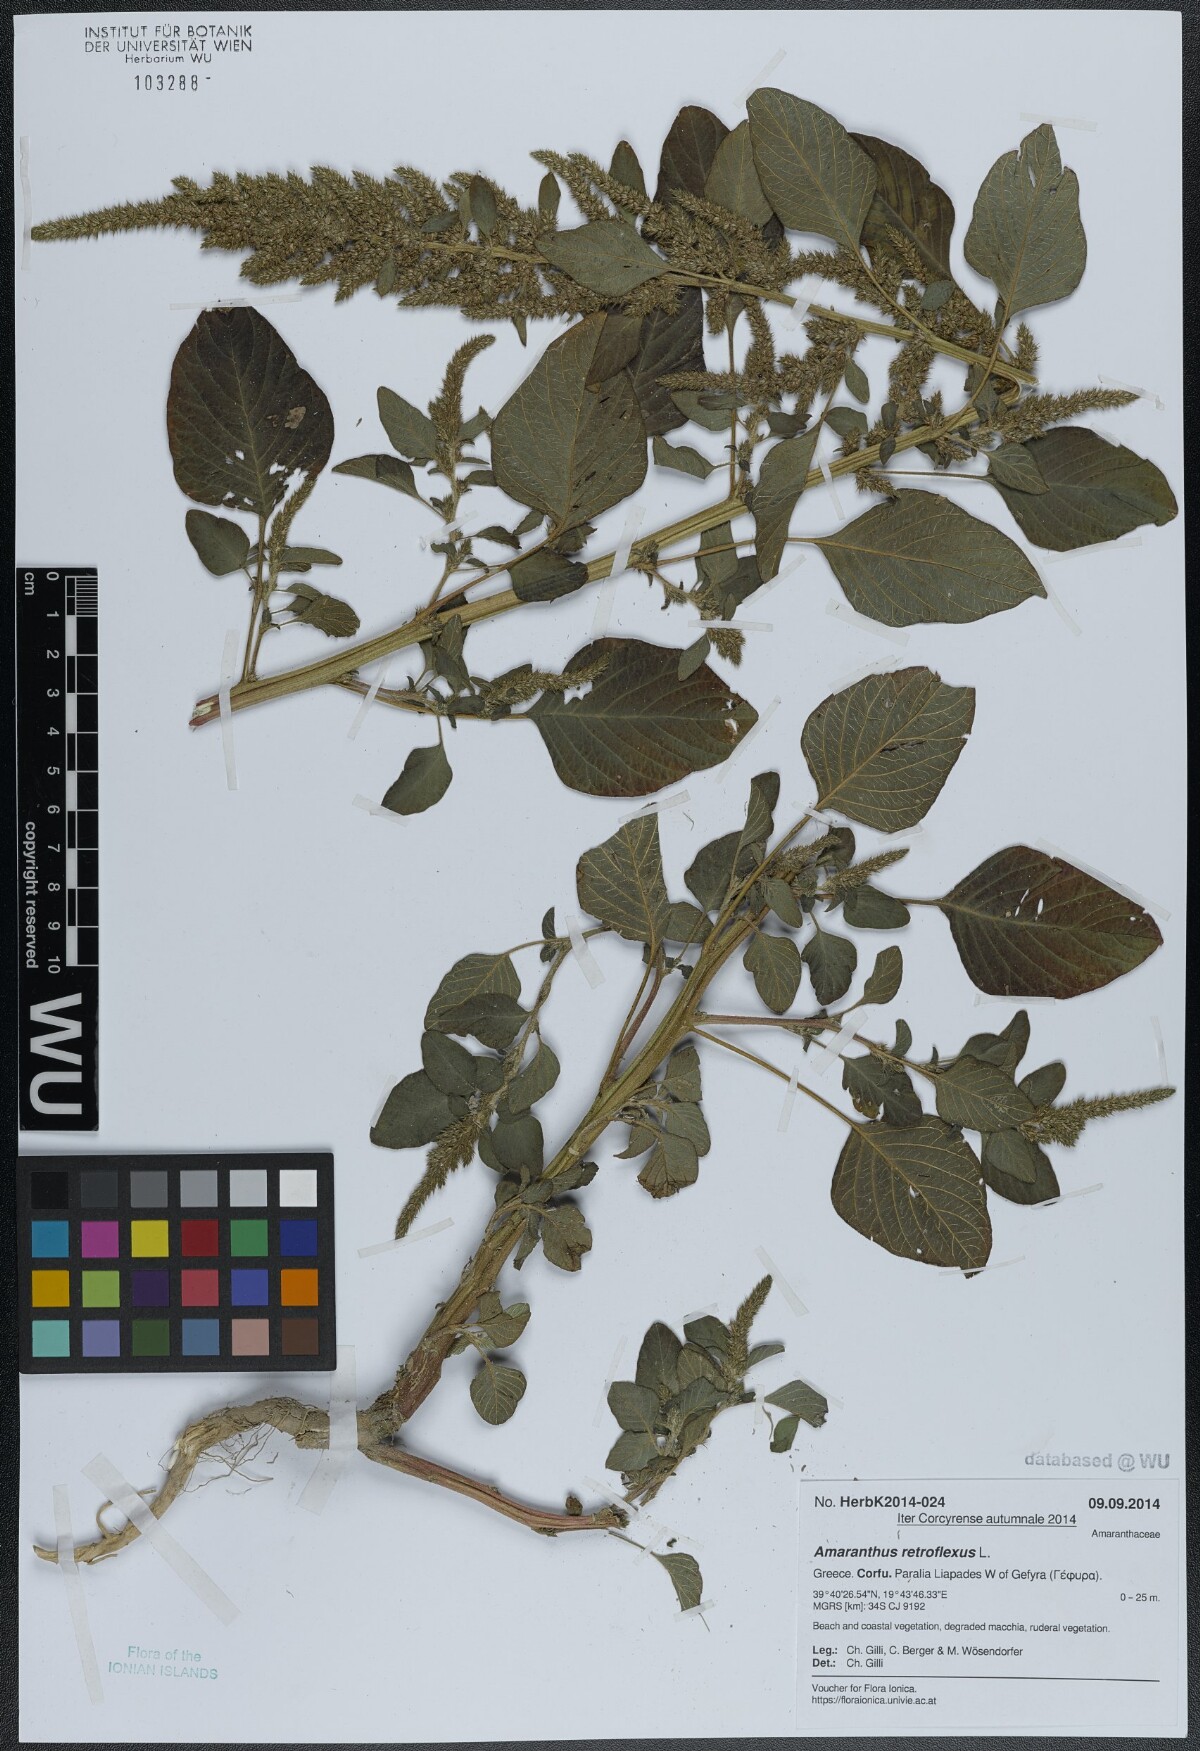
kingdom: Plantae
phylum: Tracheophyta
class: Magnoliopsida
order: Caryophyllales
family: Amaranthaceae
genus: Amaranthus
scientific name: Amaranthus retroflexus
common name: Redroot amaranth
